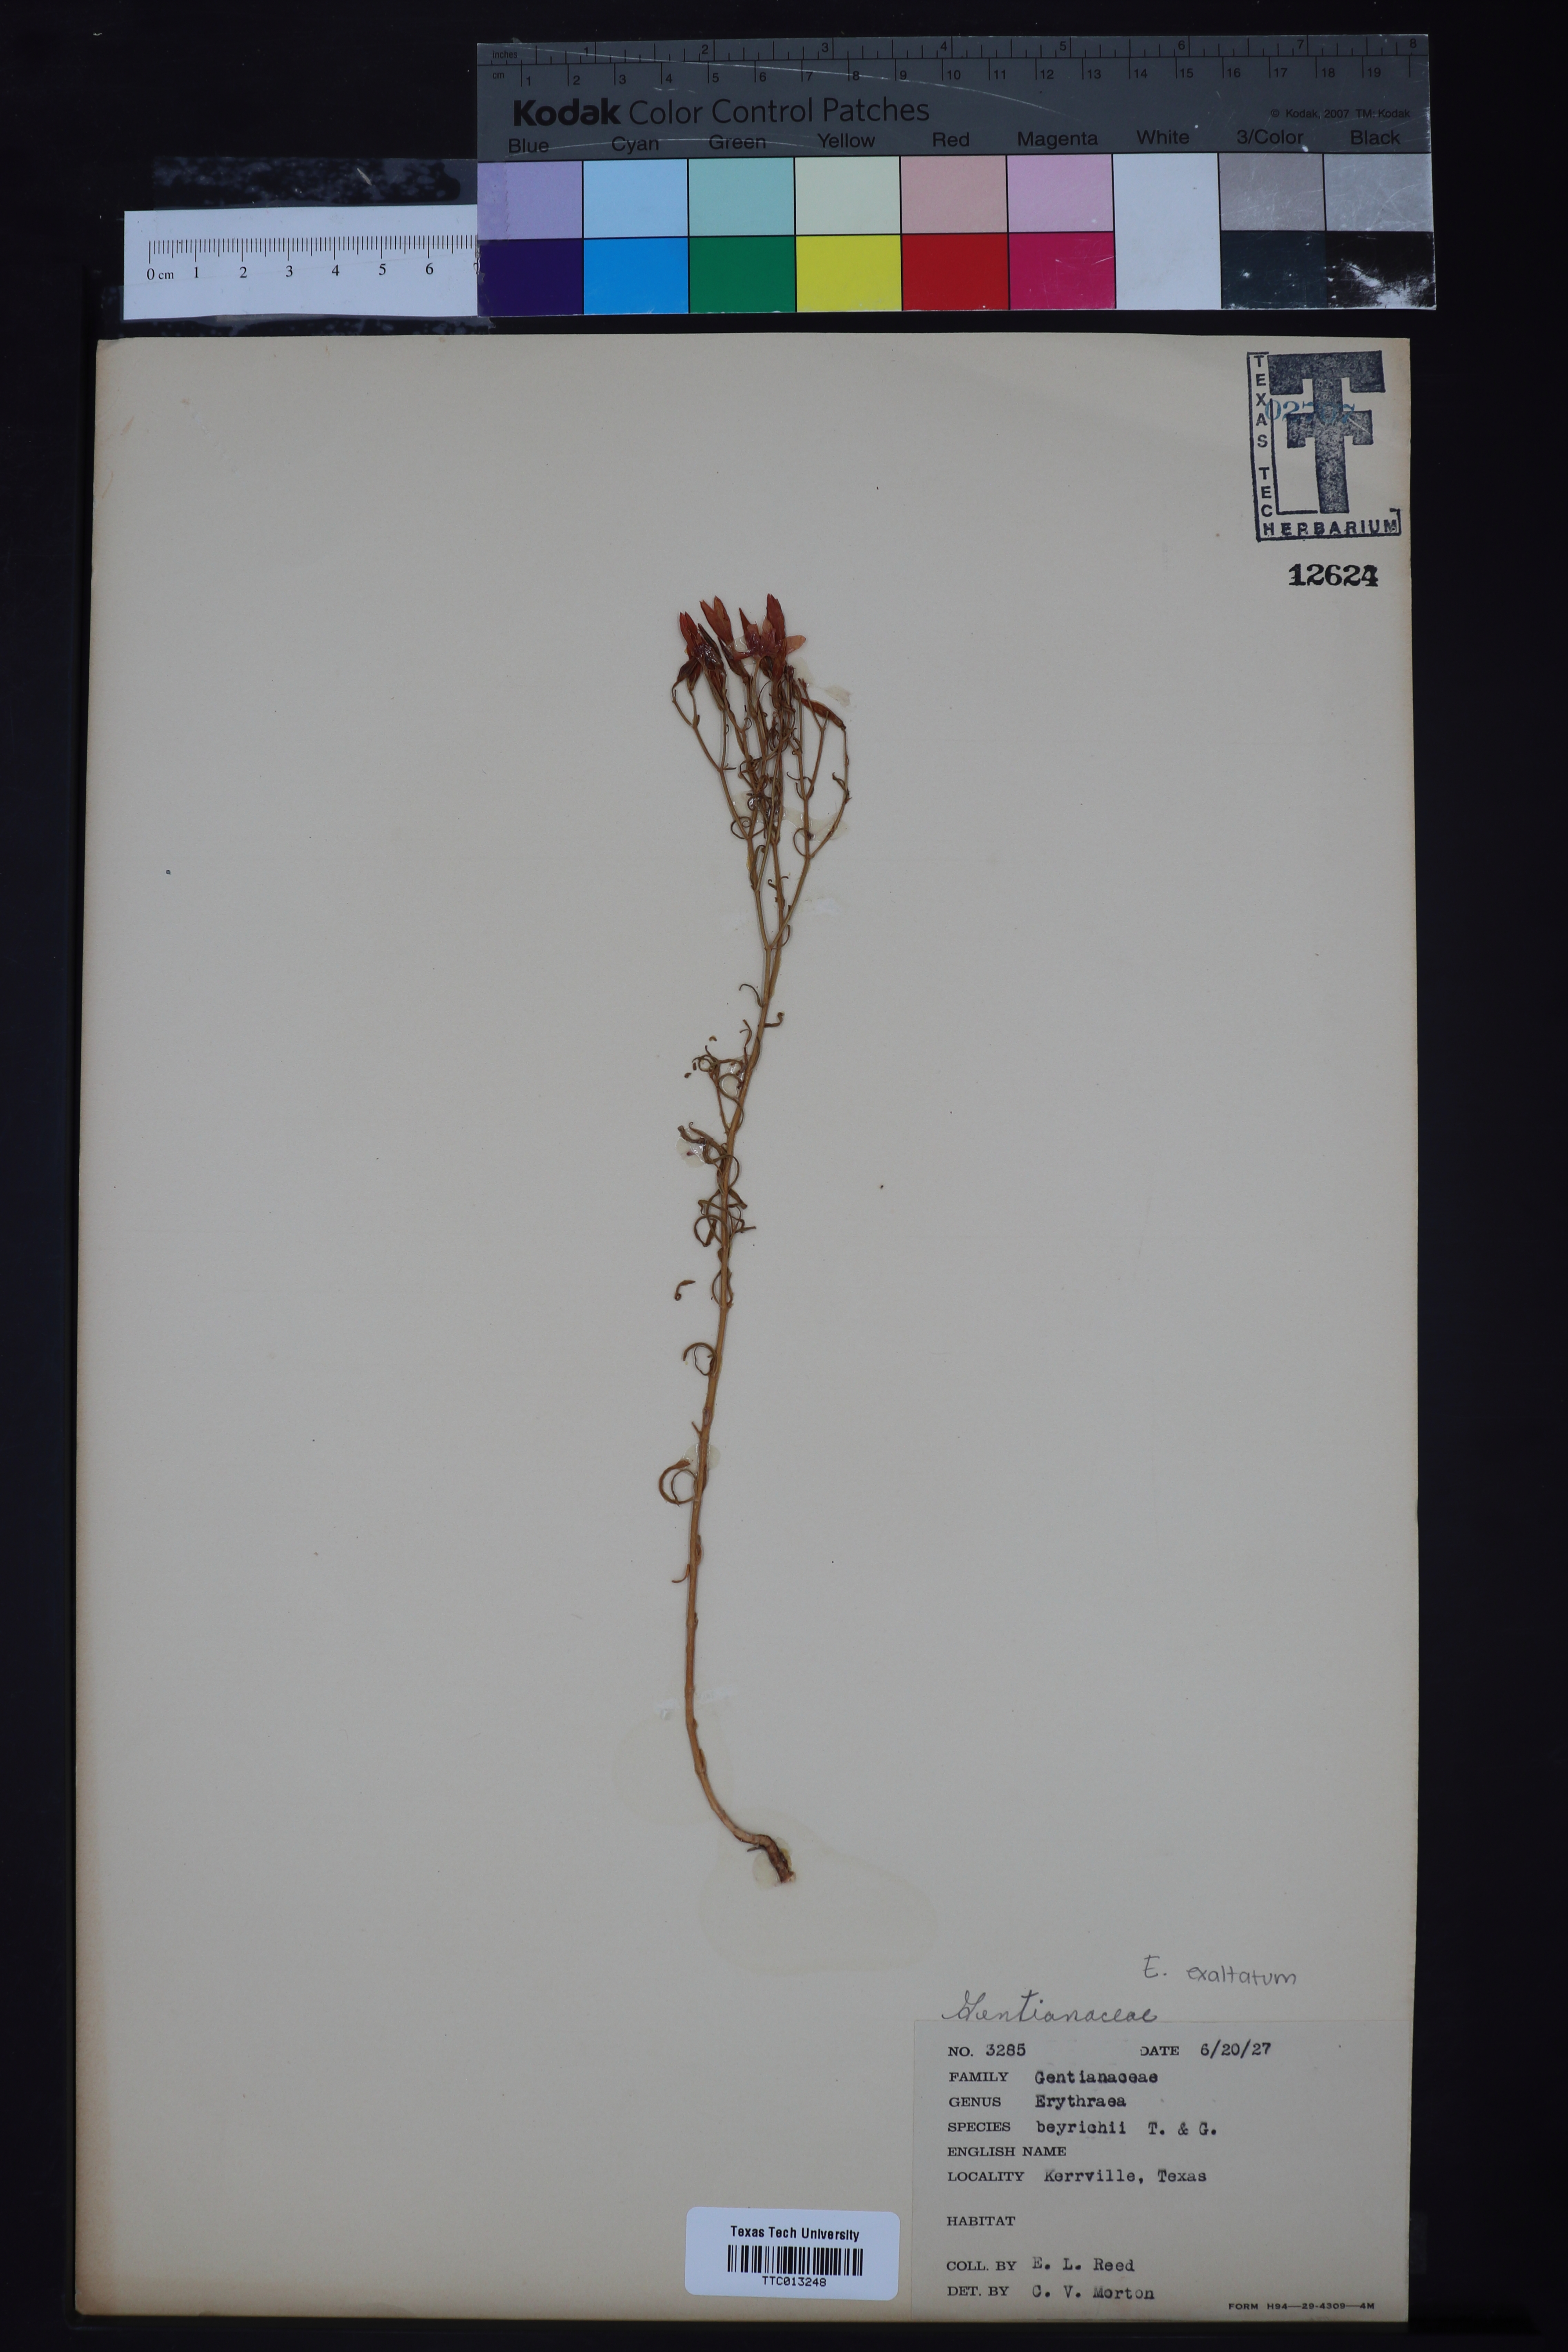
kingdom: Plantae
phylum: Tracheophyta
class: Magnoliopsida
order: Gentianales
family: Gentianaceae
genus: Zeltnera
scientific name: Zeltnera beyrichii
